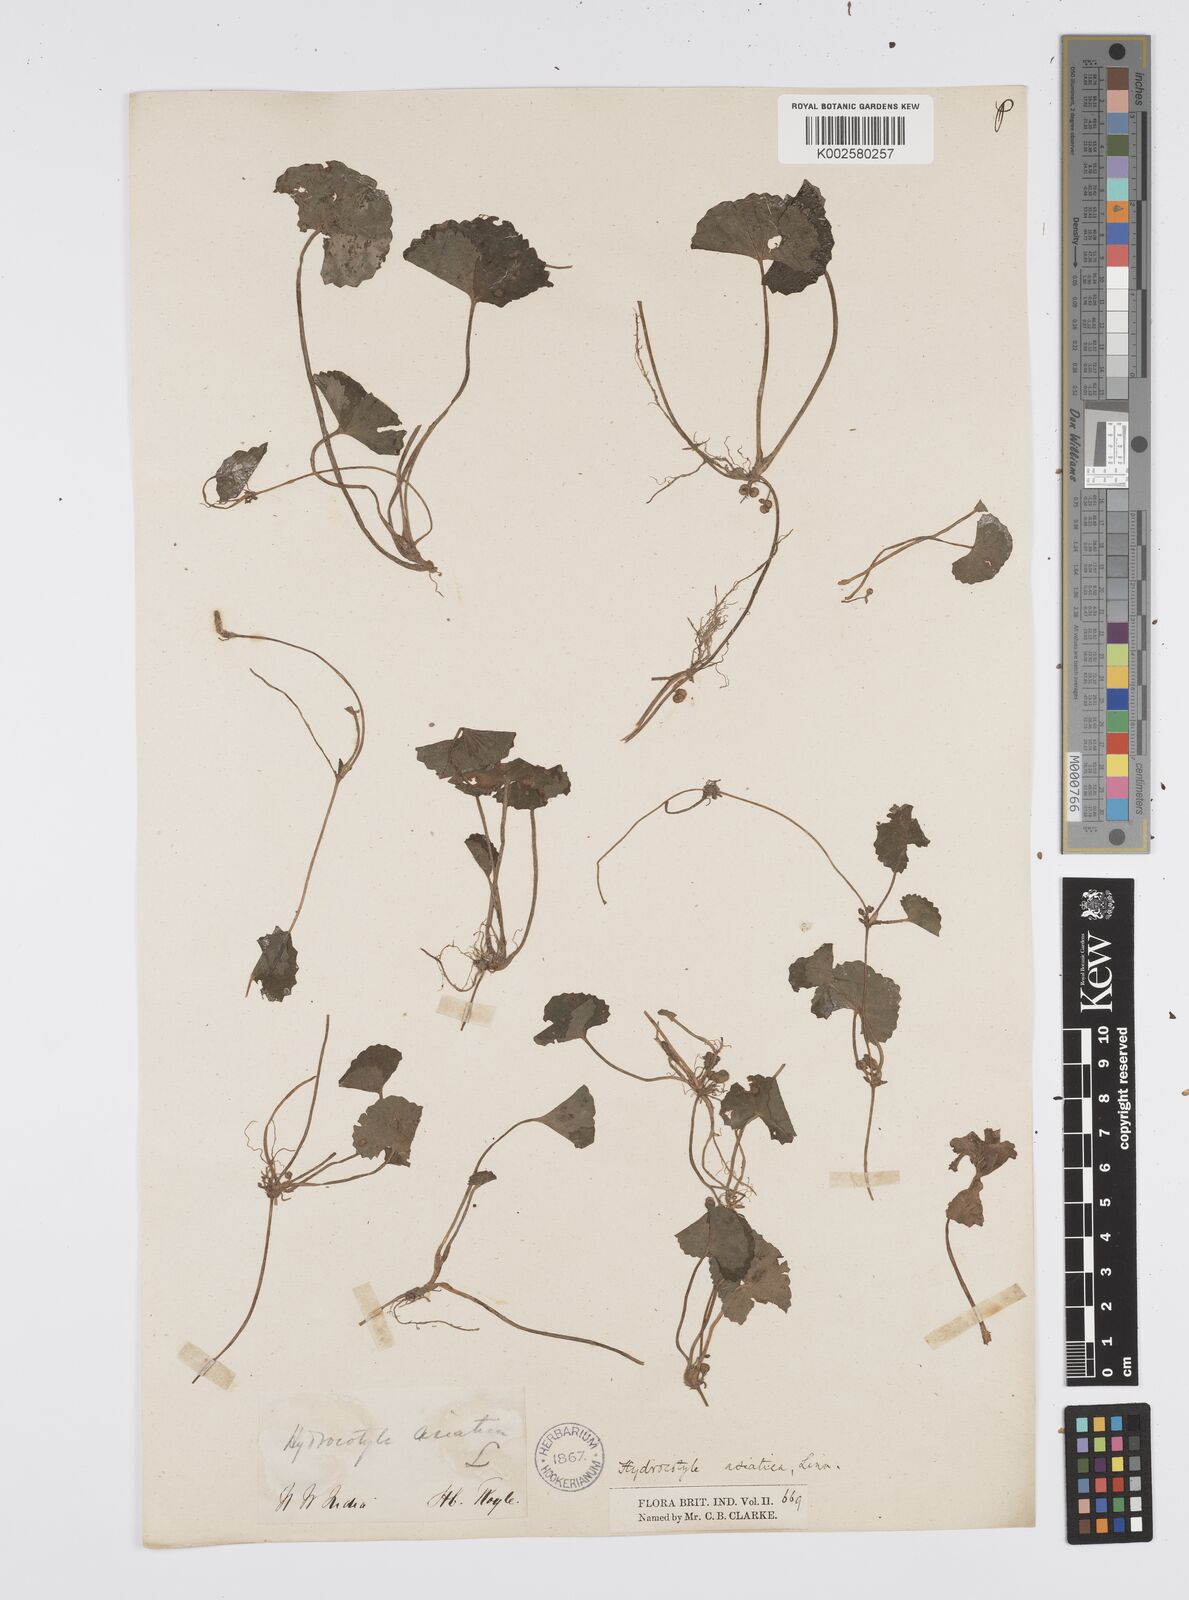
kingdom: Plantae
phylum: Tracheophyta
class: Magnoliopsida
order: Apiales
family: Apiaceae
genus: Centella
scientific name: Centella asiatica
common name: Spadeleaf
